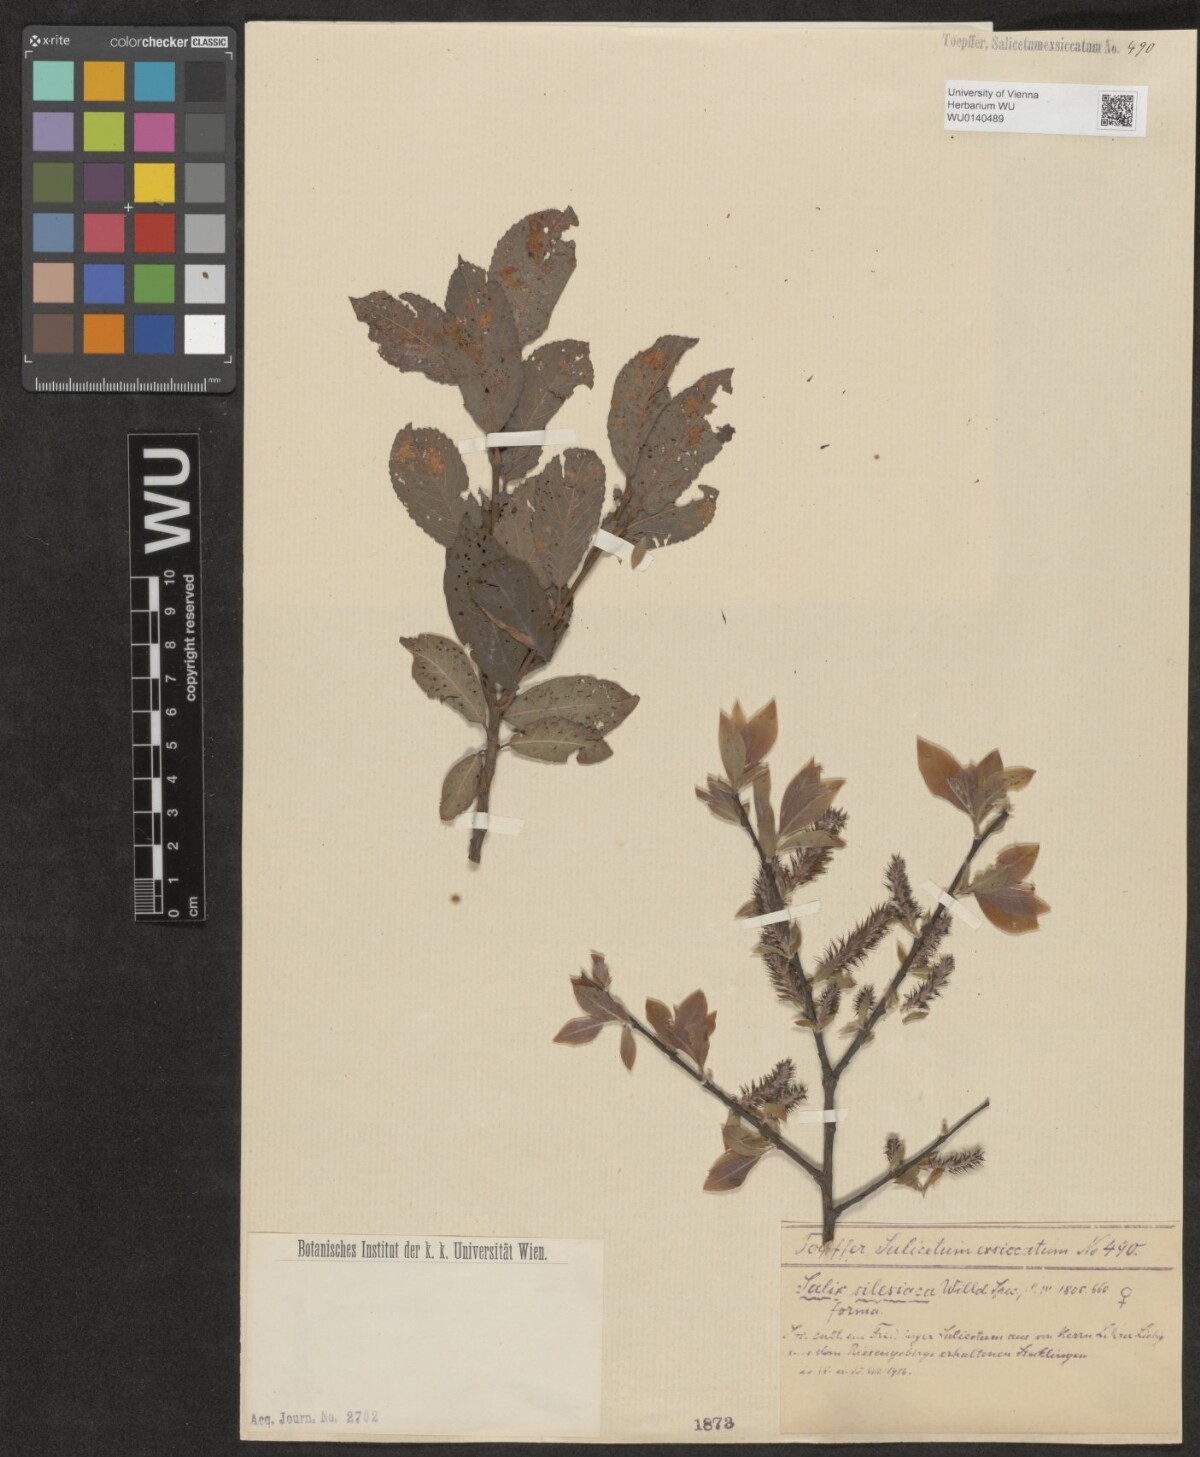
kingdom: Plantae
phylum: Tracheophyta
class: Magnoliopsida
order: Malpighiales
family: Salicaceae
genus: Salix
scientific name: Salix silesiaca
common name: Silesian willow
